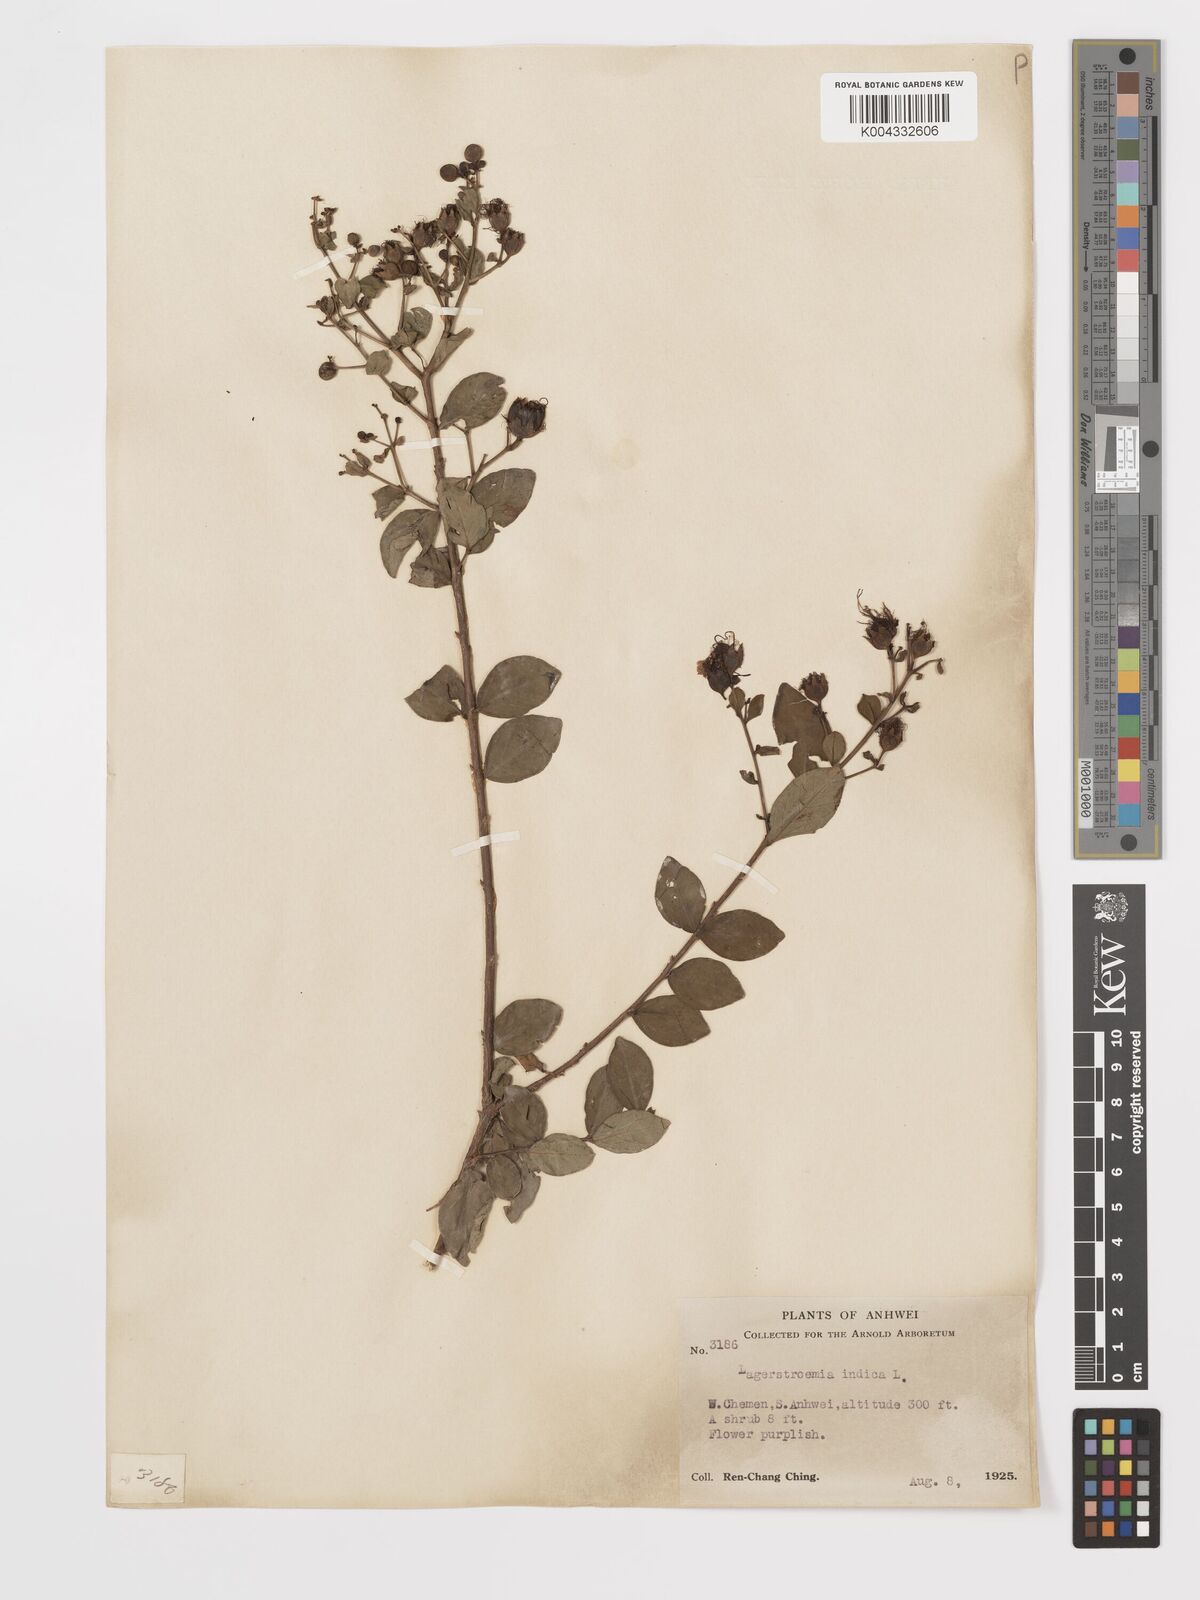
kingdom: Plantae
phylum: Tracheophyta
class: Magnoliopsida
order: Myrtales
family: Lythraceae
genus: Lagerstroemia
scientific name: Lagerstroemia indica
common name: Crape-myrtle
